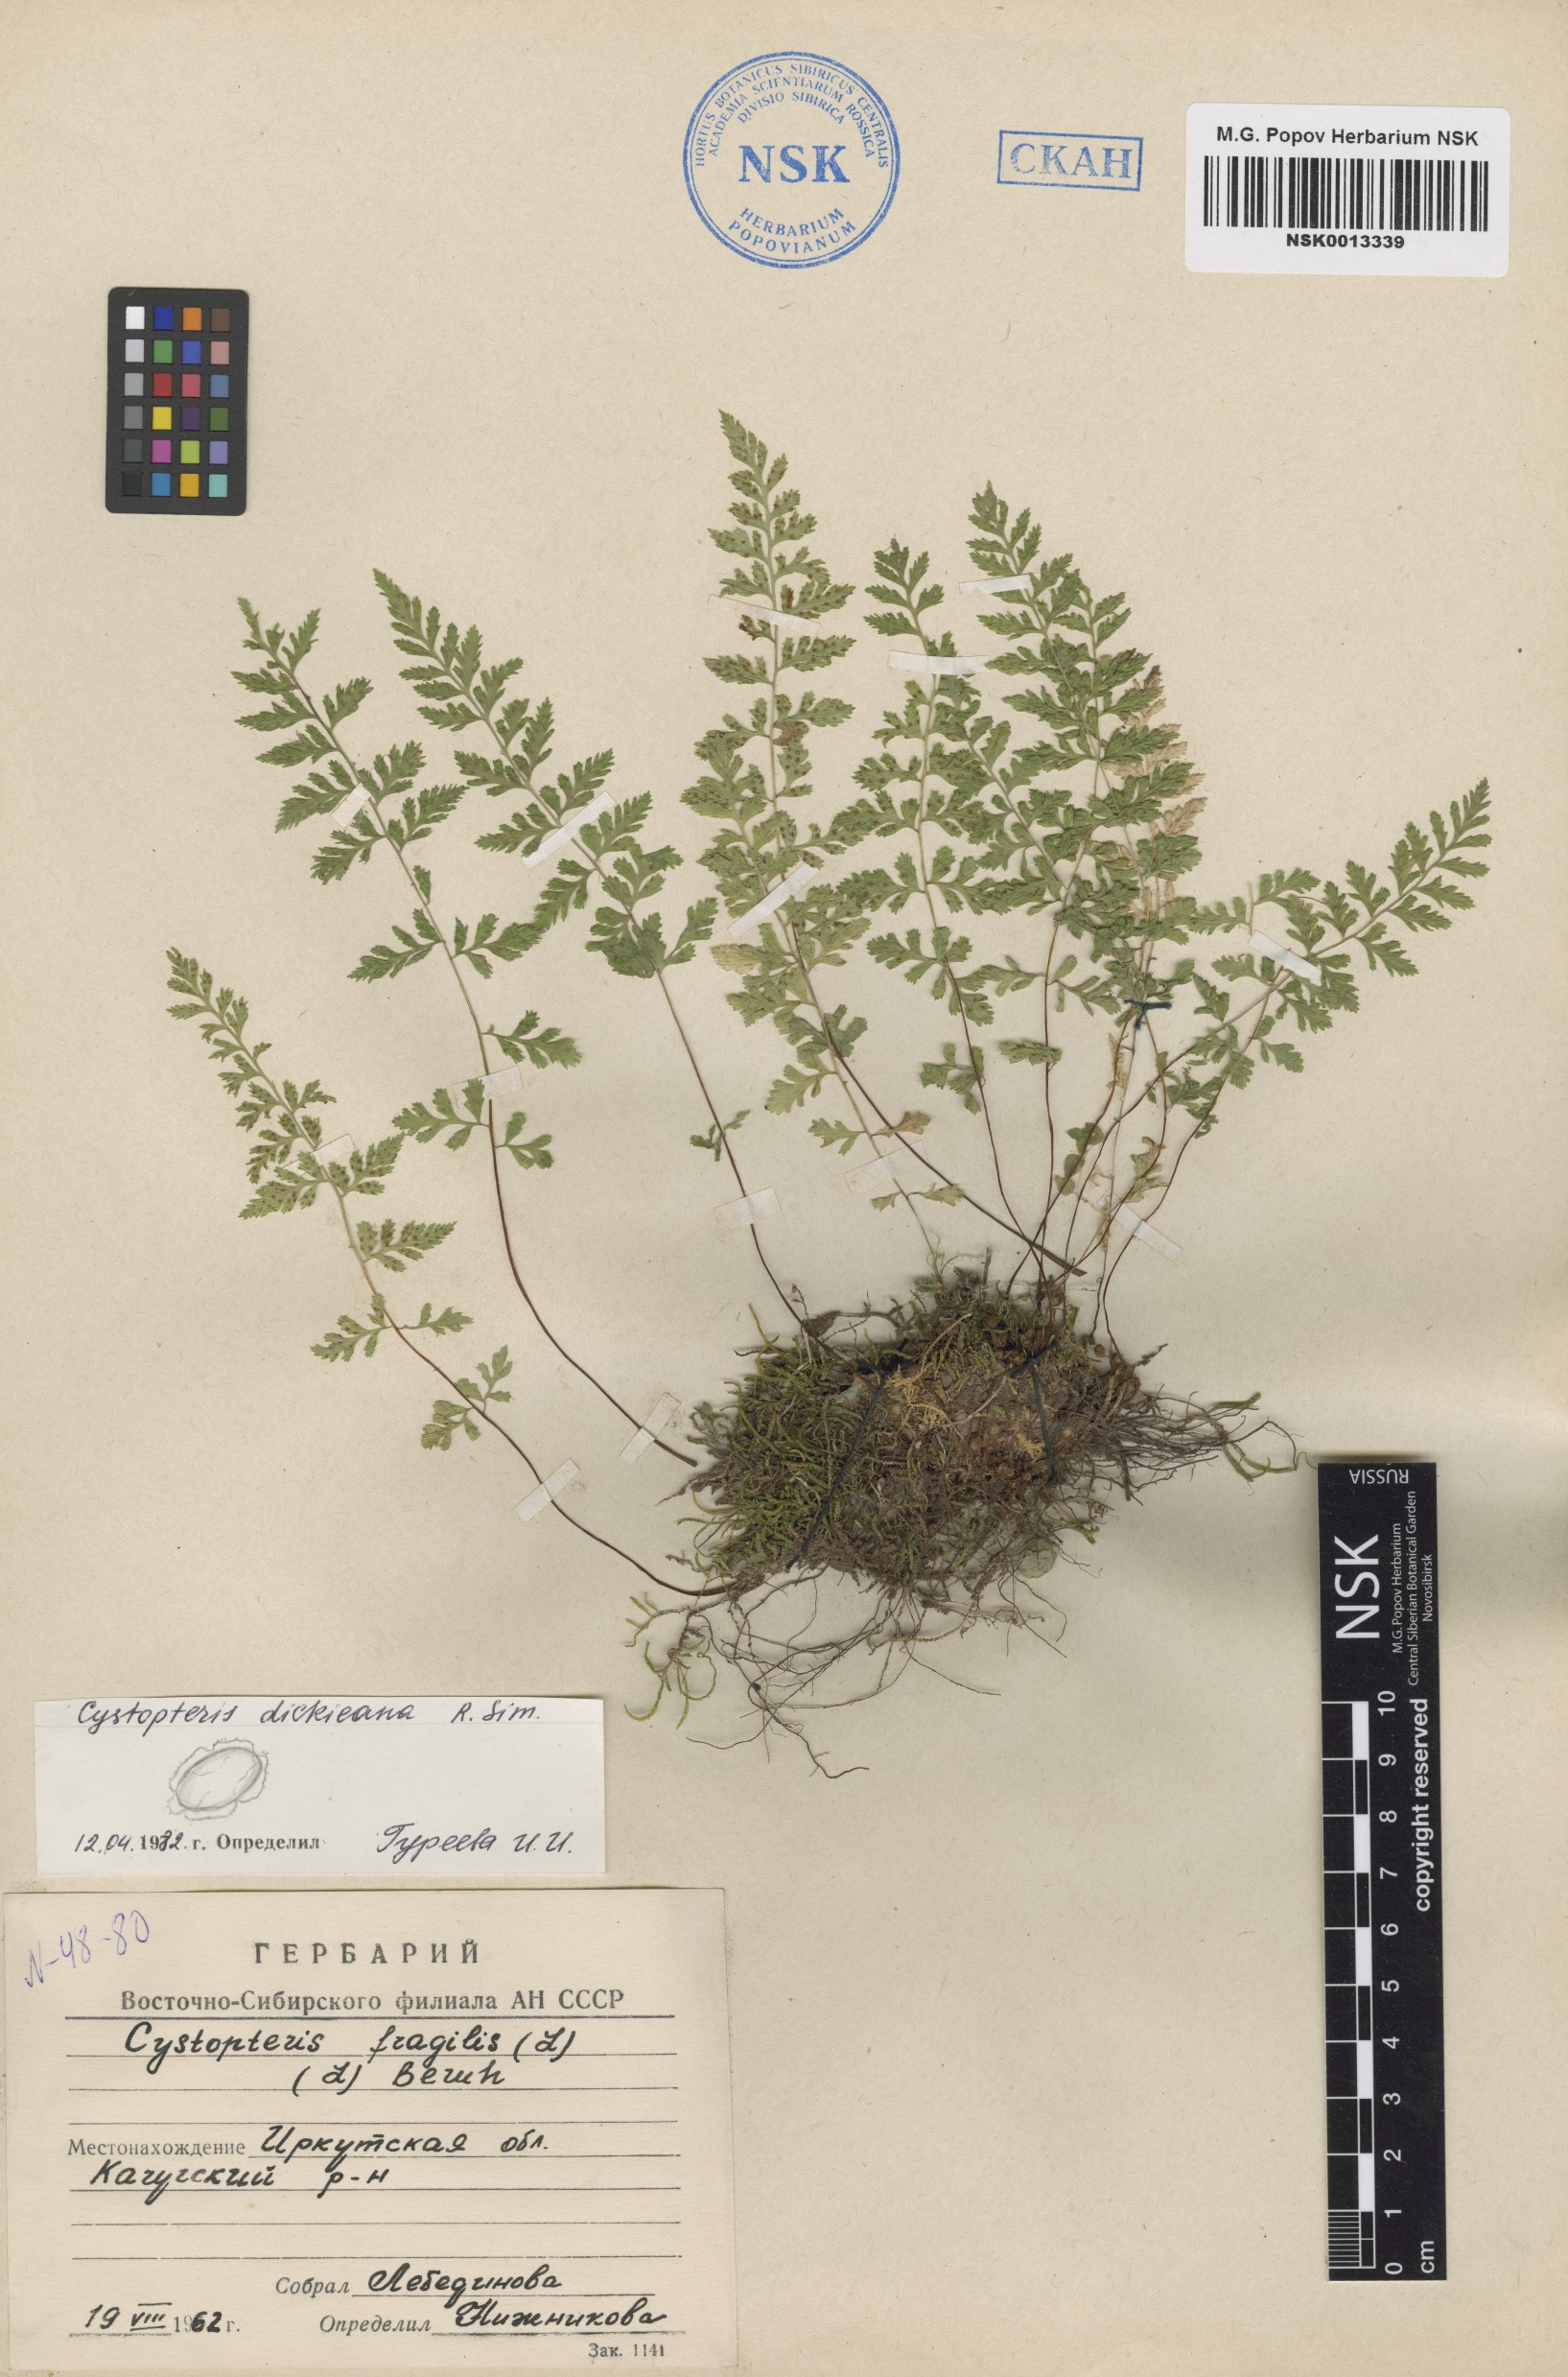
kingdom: Plantae
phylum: Tracheophyta
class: Polypodiopsida
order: Polypodiales
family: Cystopteridaceae
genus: Cystopteris
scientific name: Cystopteris dickieana
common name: Dickie's bladder-fern
